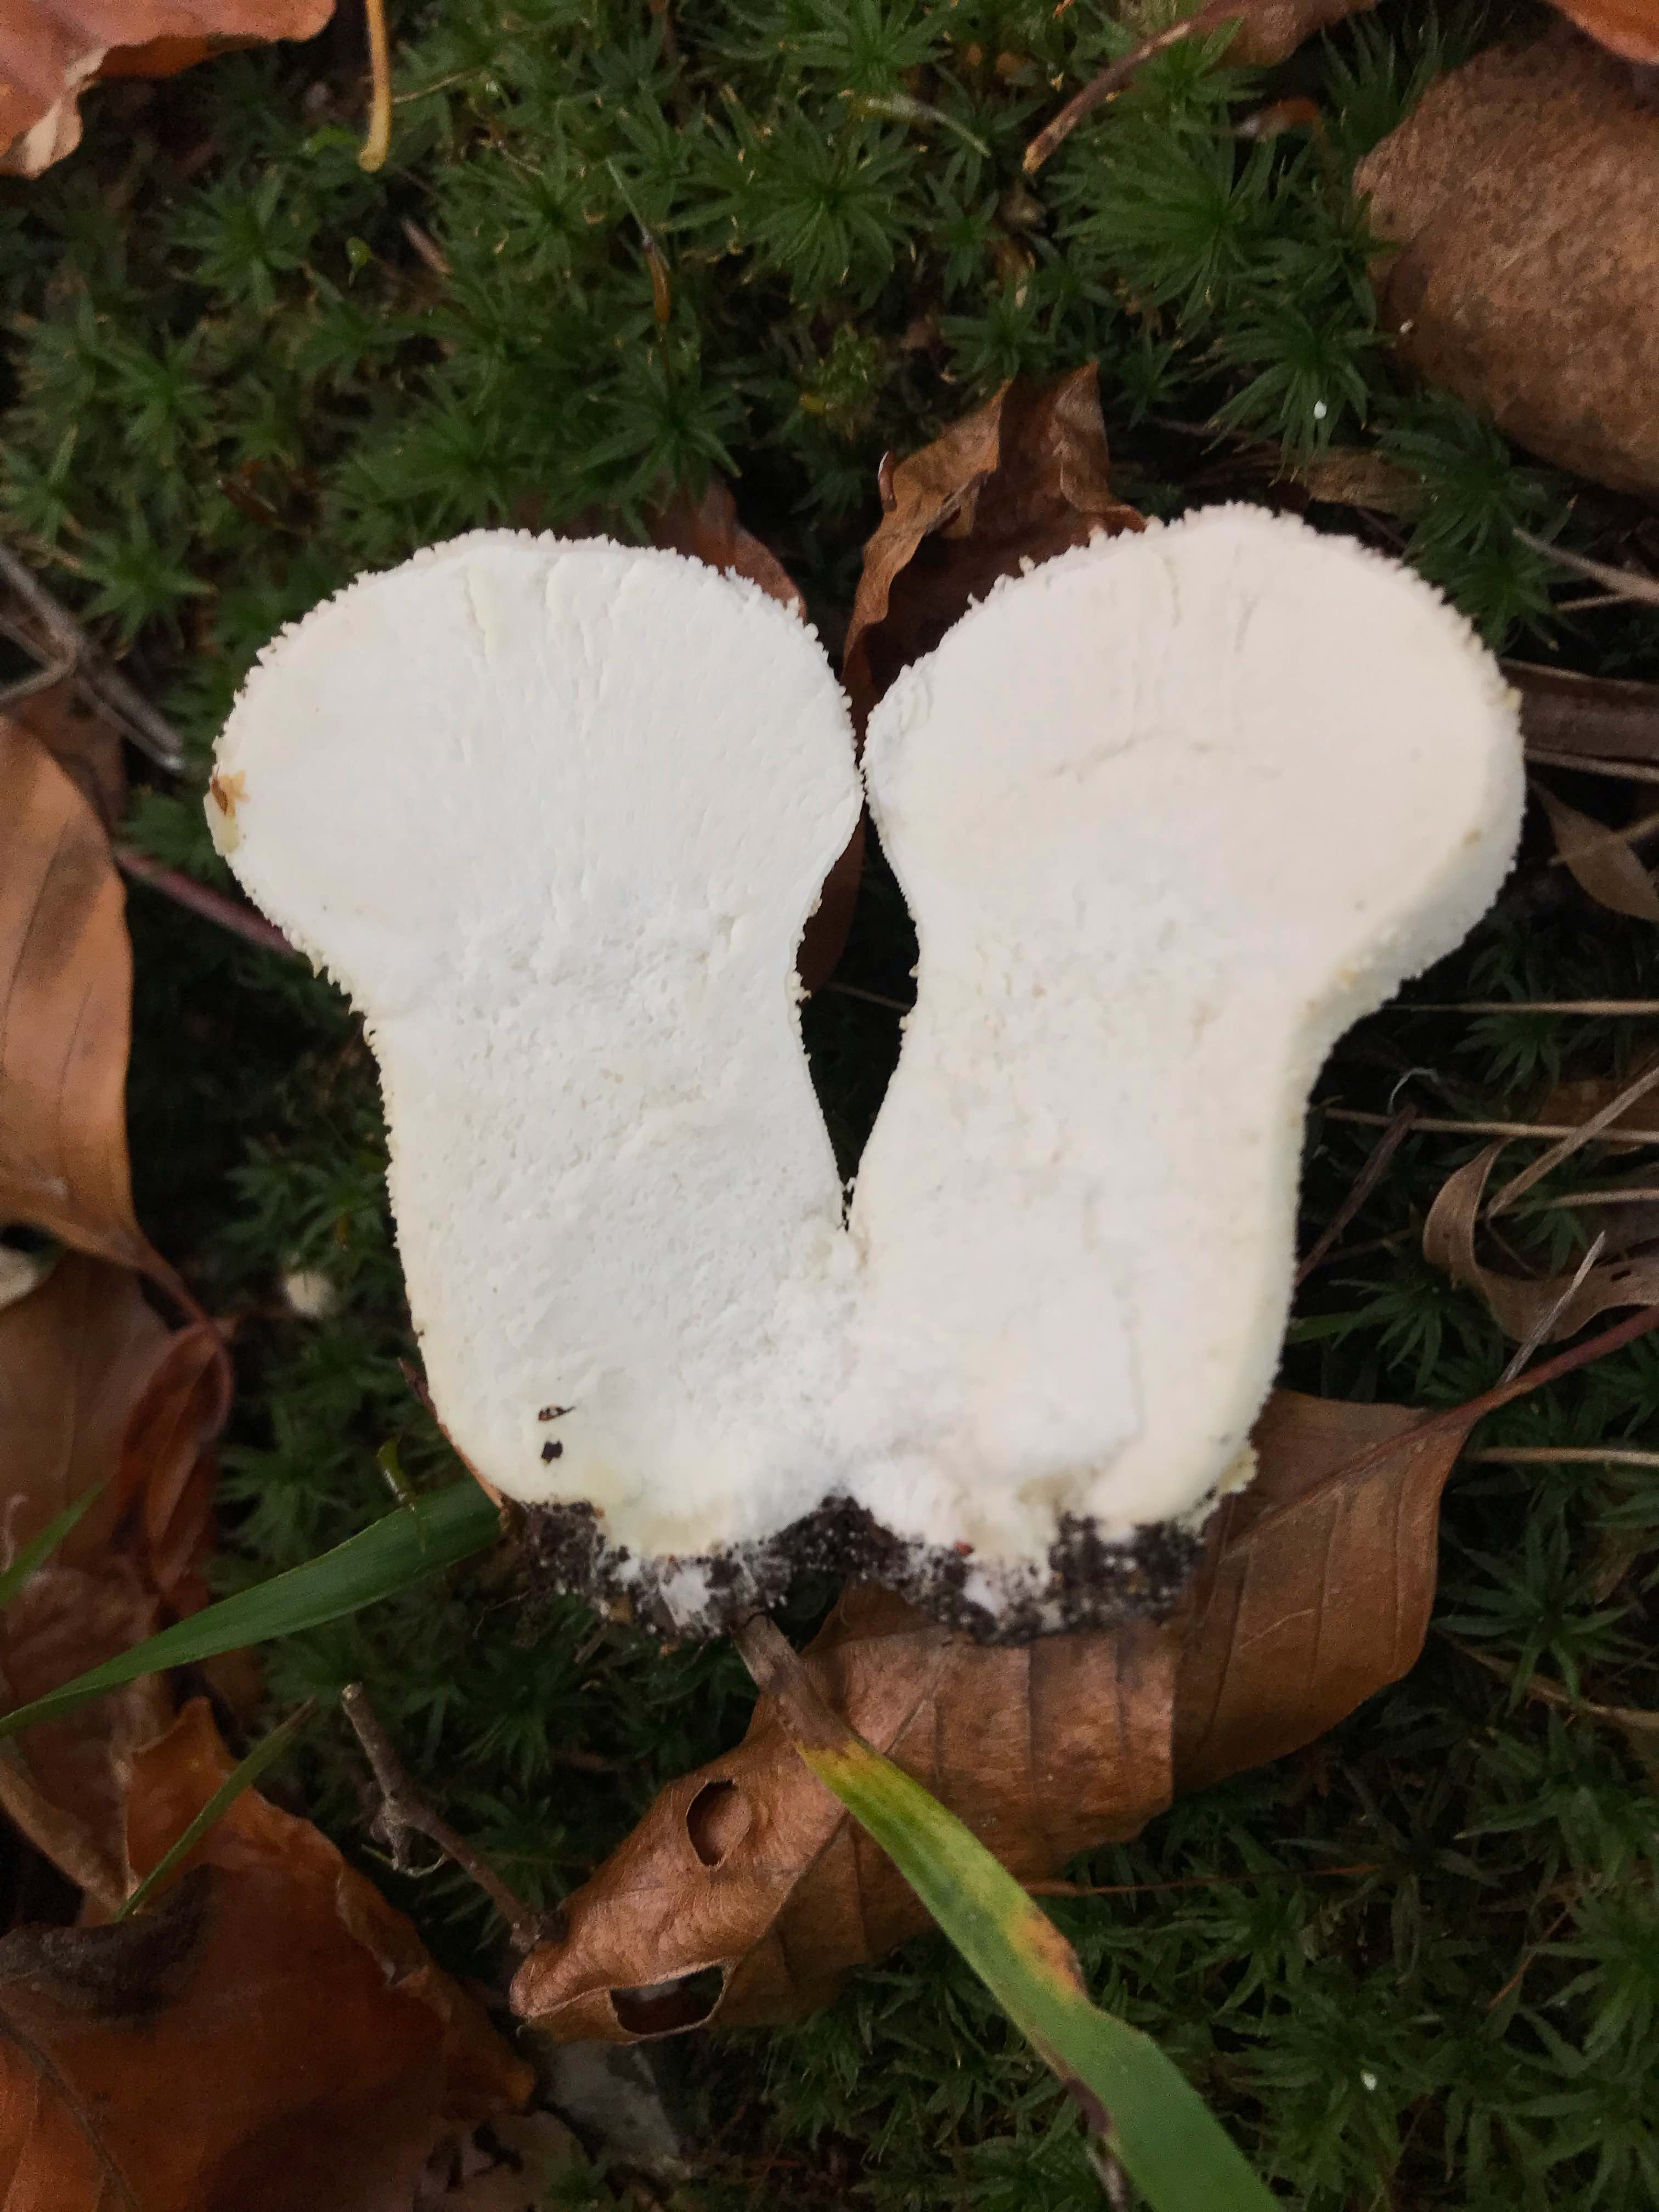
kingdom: Fungi
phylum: Basidiomycota
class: Agaricomycetes
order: Agaricales
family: Lycoperdaceae
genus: Lycoperdon
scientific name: Lycoperdon perlatum
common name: krystal-støvbold
